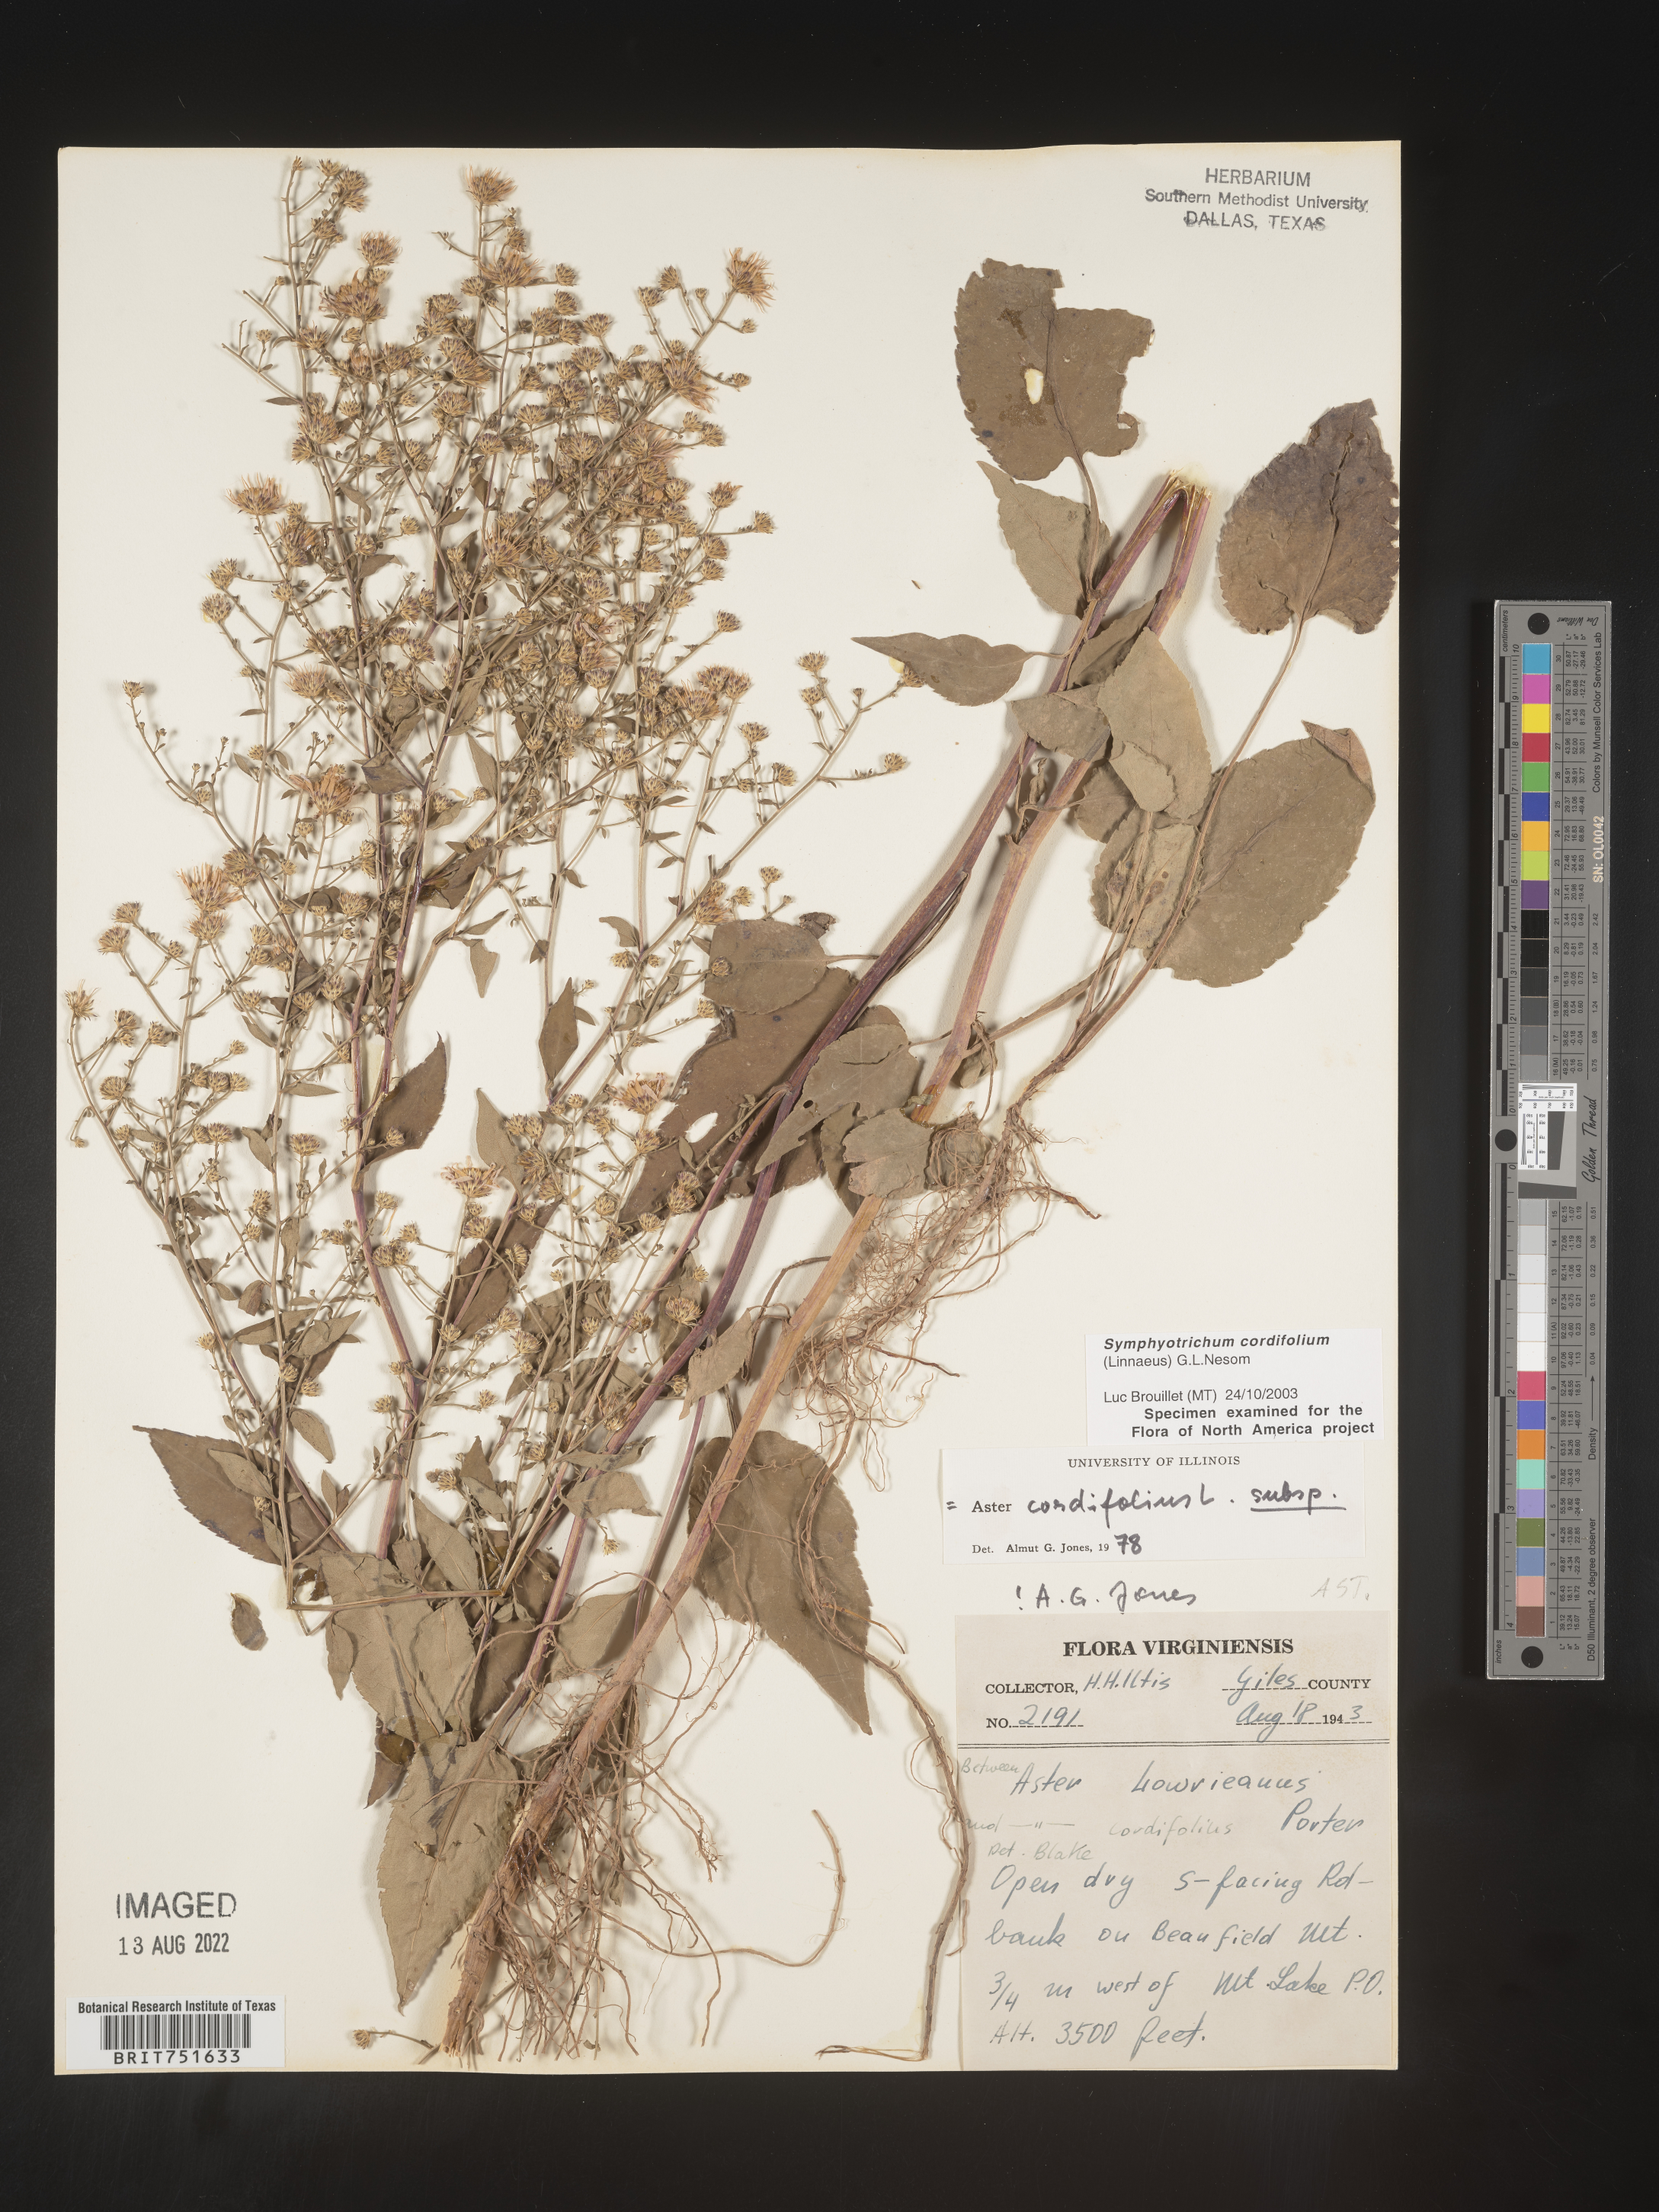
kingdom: Plantae
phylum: Tracheophyta
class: Magnoliopsida
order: Asterales
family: Asteraceae
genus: Symphyotrichum
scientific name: Symphyotrichum cordifolium
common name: Beeweed
